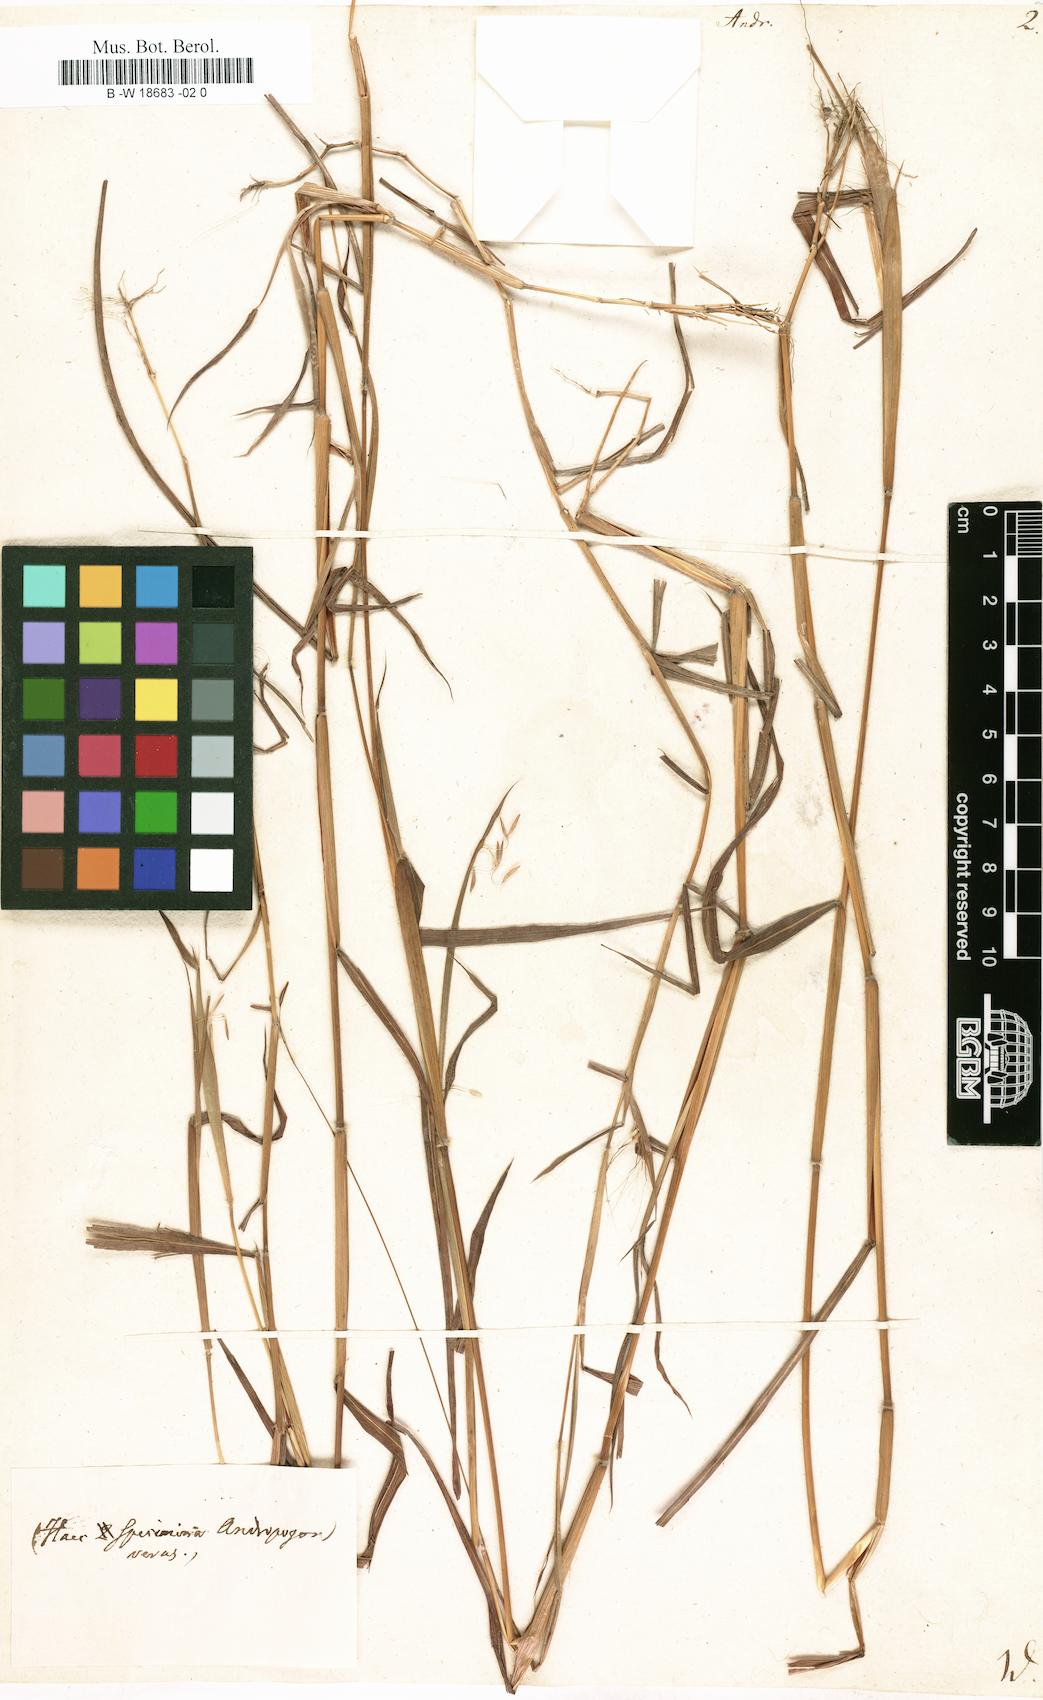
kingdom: Plantae
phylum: Tracheophyta
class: Liliopsida
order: Poales
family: Poaceae
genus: Andropogon
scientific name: Andropogon
